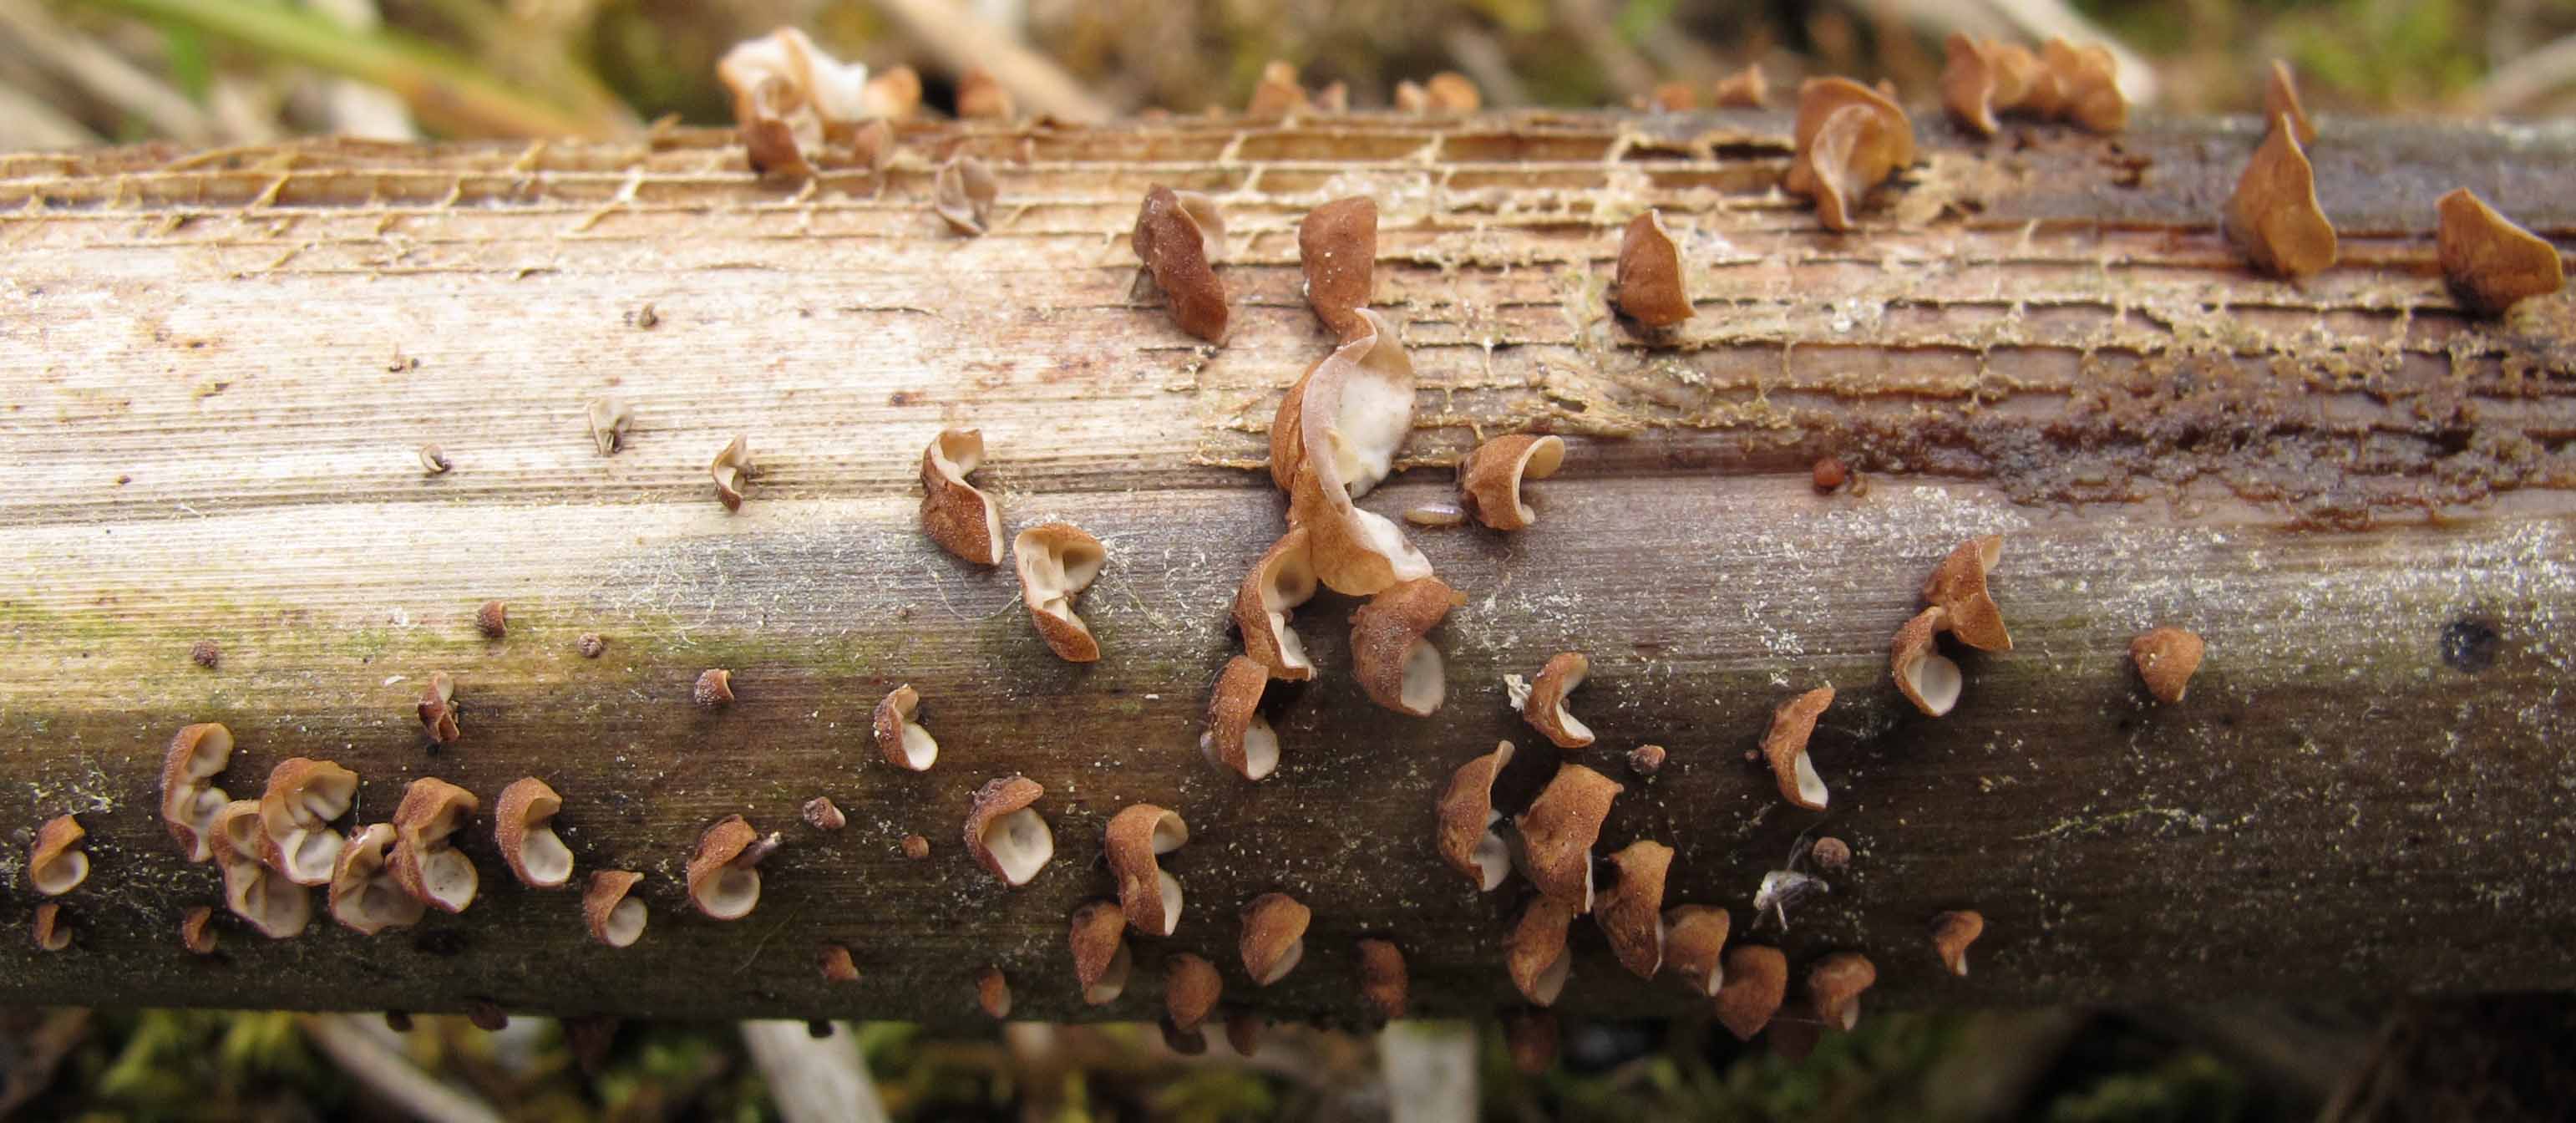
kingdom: Fungi
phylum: Basidiomycota
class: Agaricomycetes
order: Agaricales
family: Physalacriaceae
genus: Gloiocephala
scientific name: Gloiocephala menieri
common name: dunhammer-spatelhat
